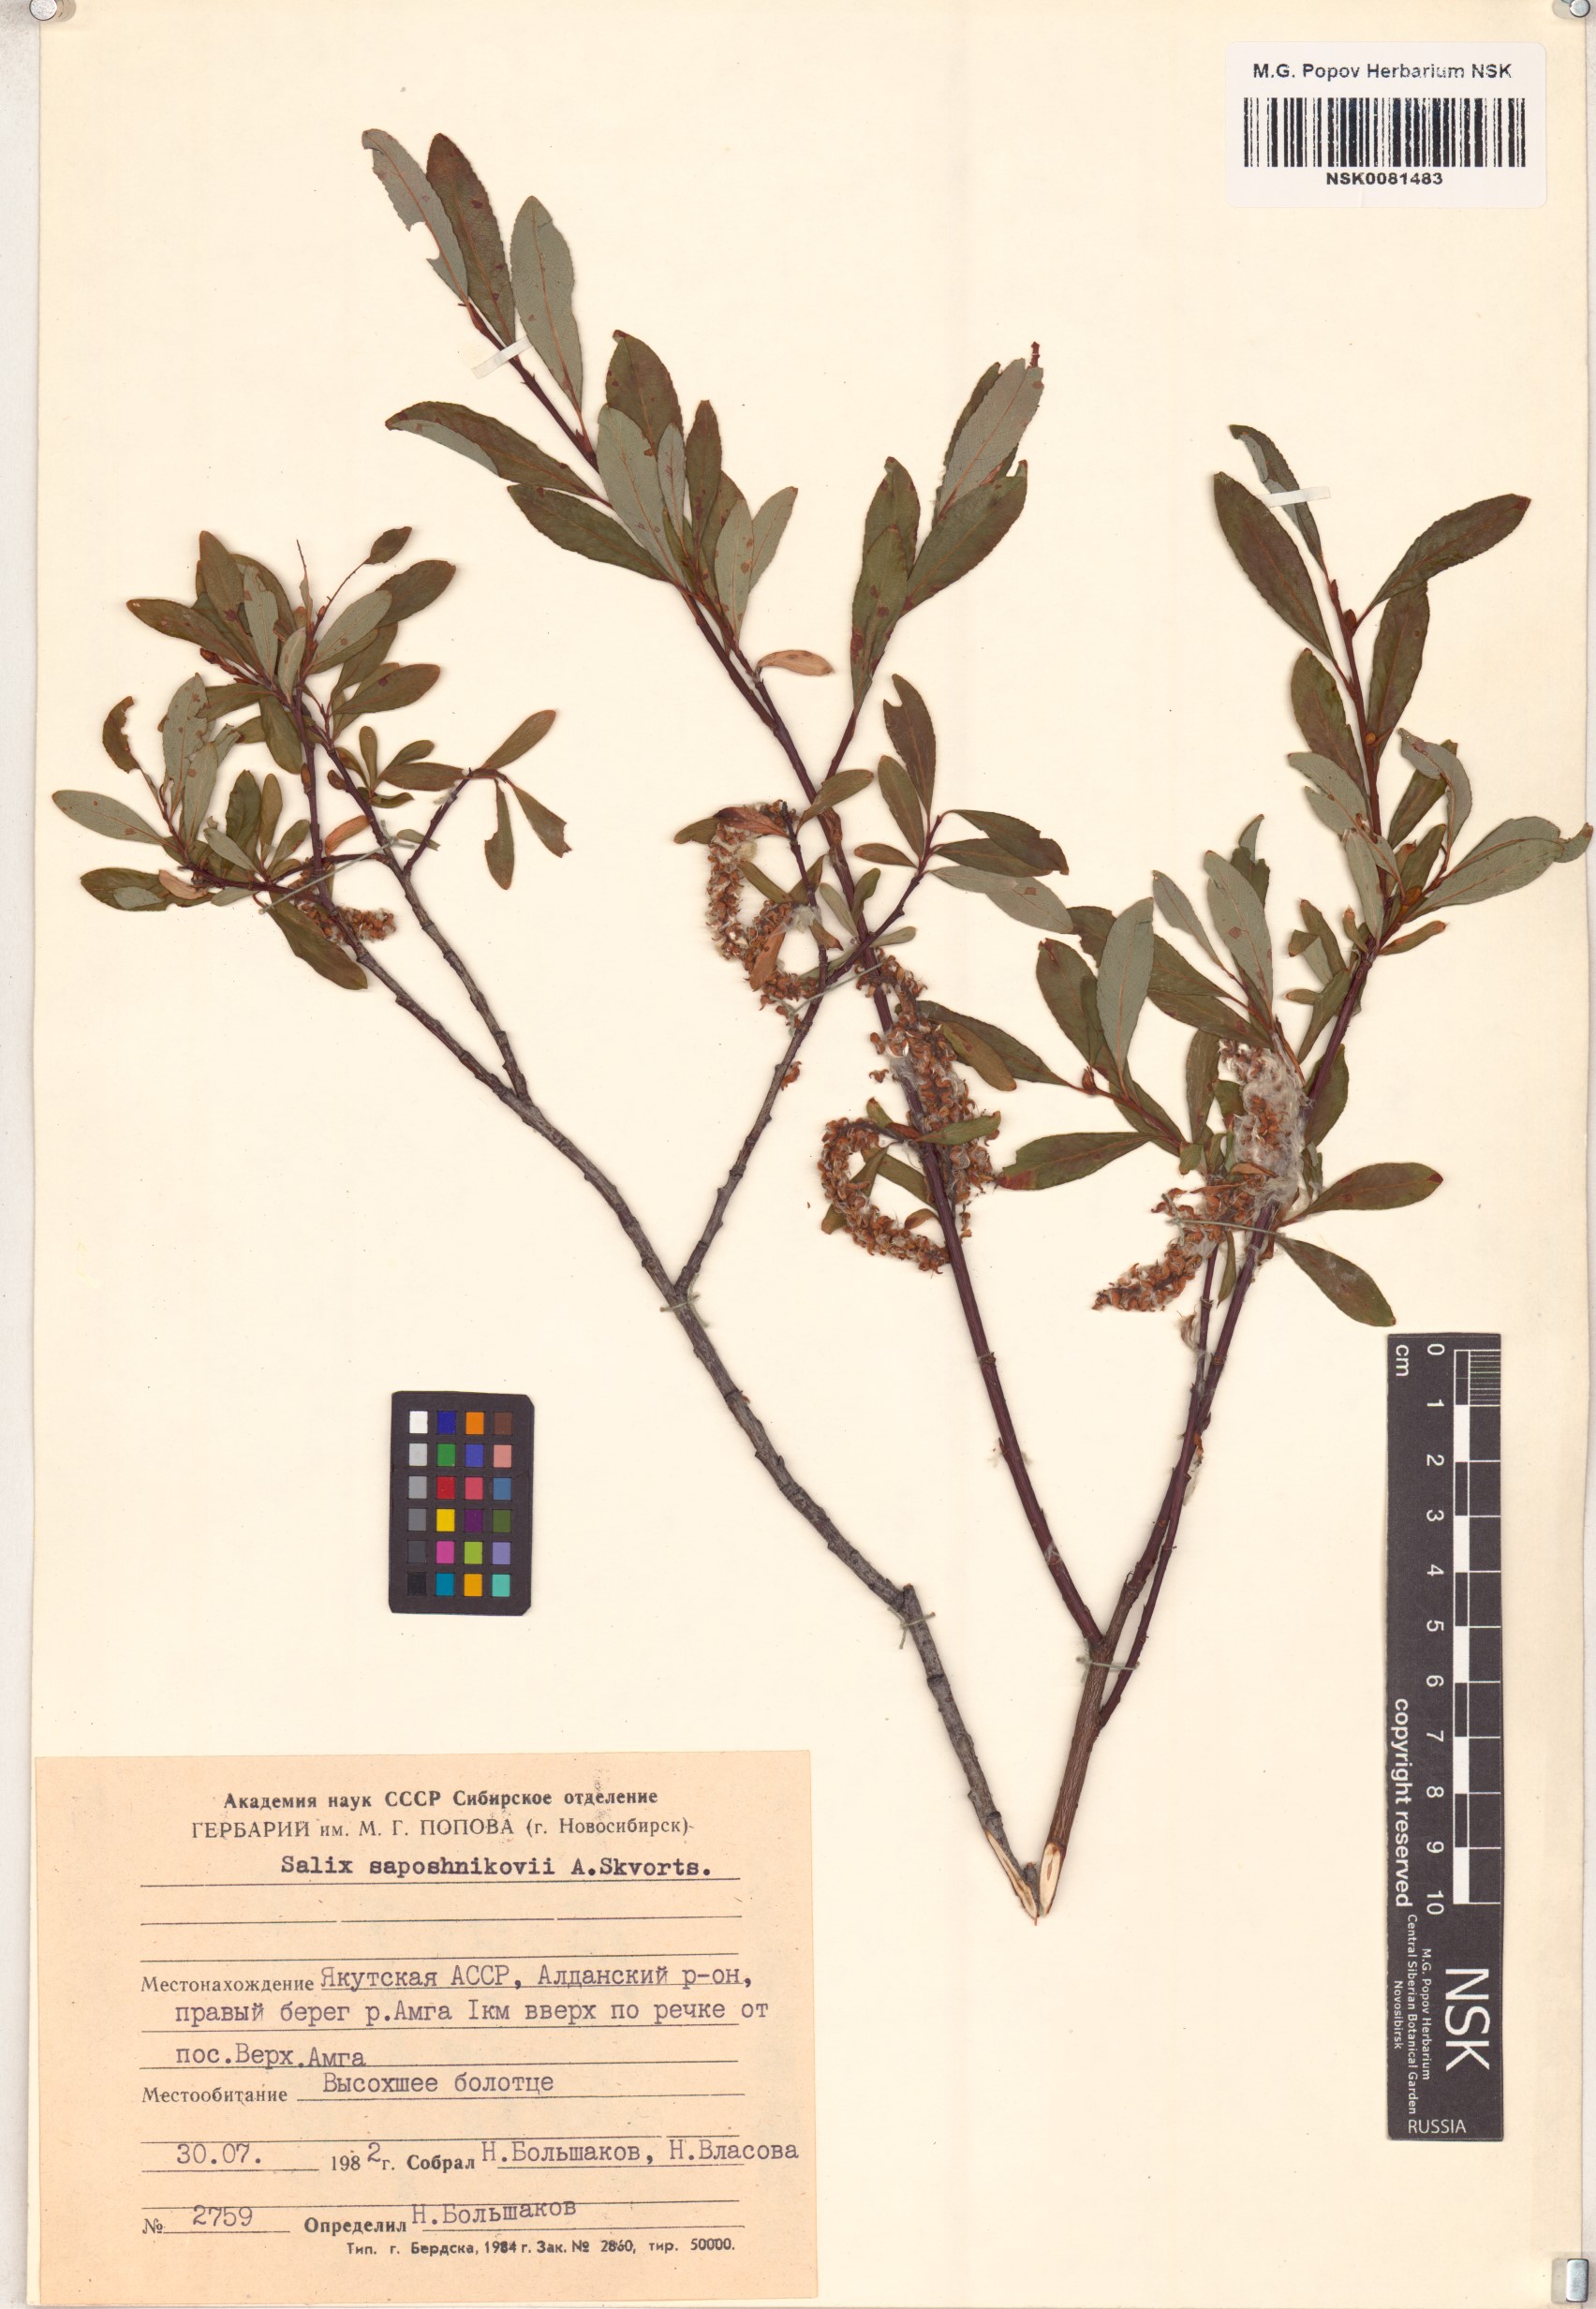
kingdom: Plantae
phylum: Tracheophyta
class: Magnoliopsida
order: Malpighiales
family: Salicaceae
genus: Salix
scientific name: Salix saposhnikovii
